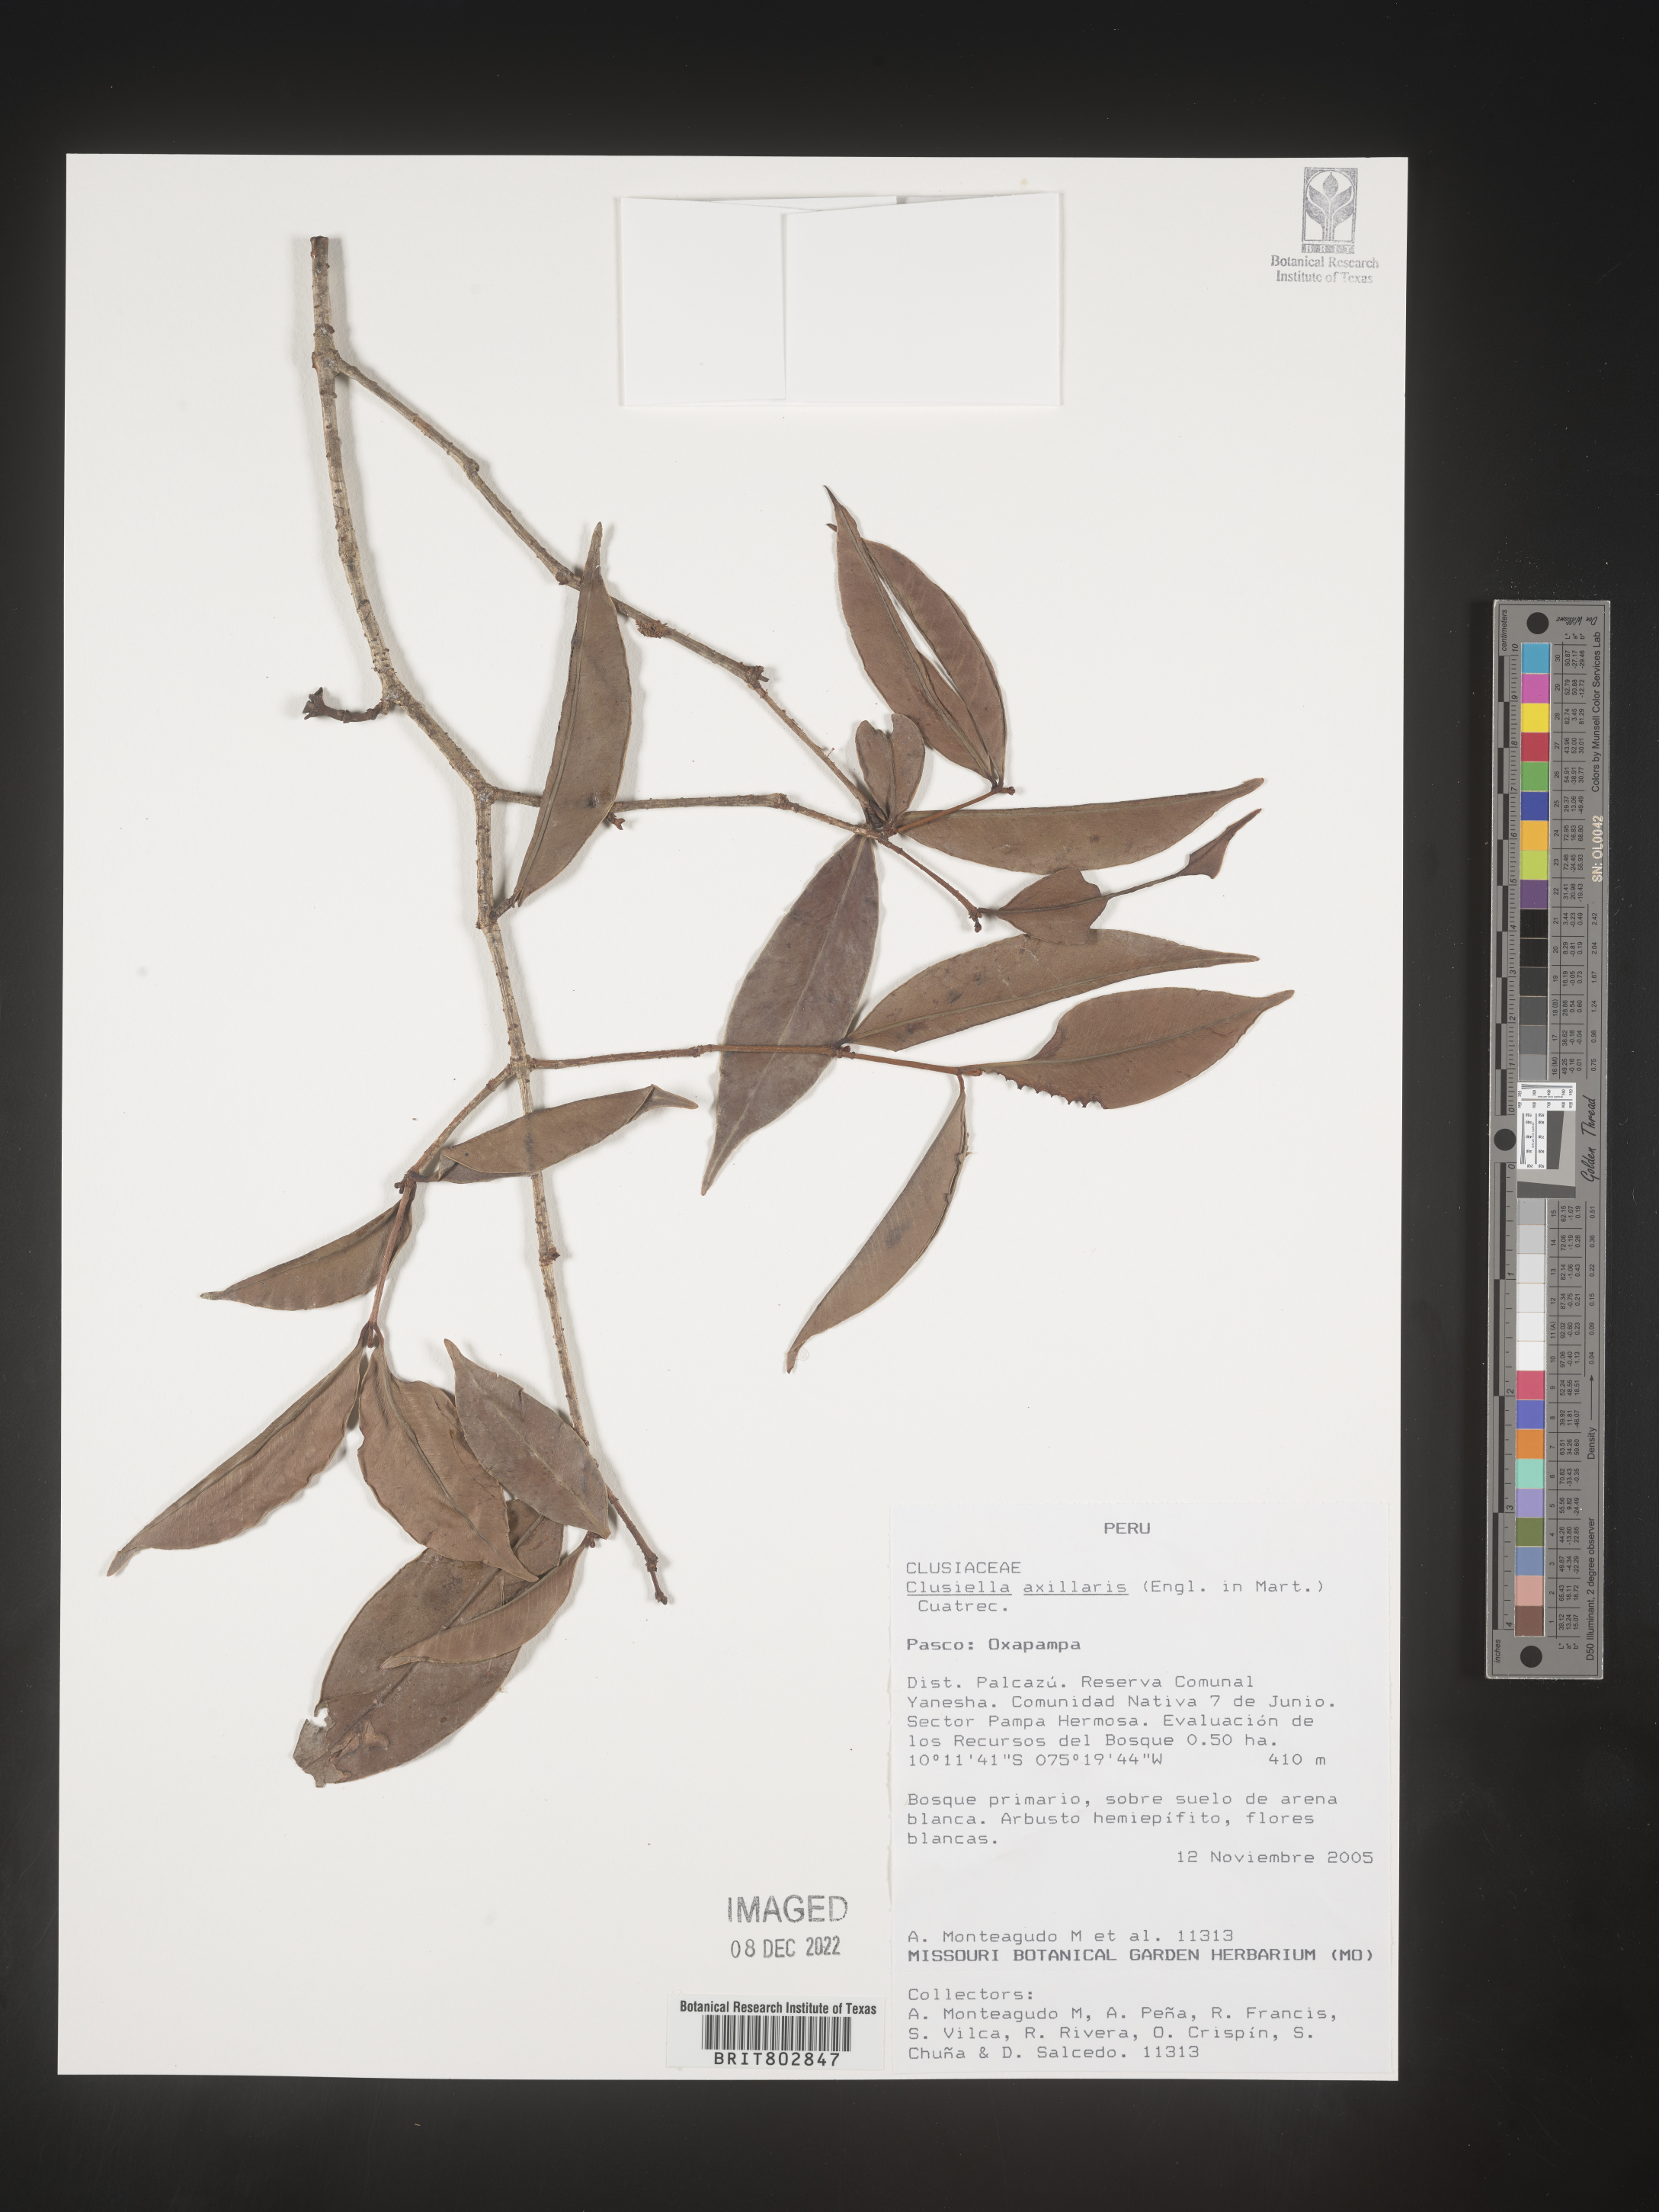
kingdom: Plantae
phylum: Tracheophyta
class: Magnoliopsida
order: Malpighiales
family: Calophyllaceae
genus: Clusiella
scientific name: Clusiella
